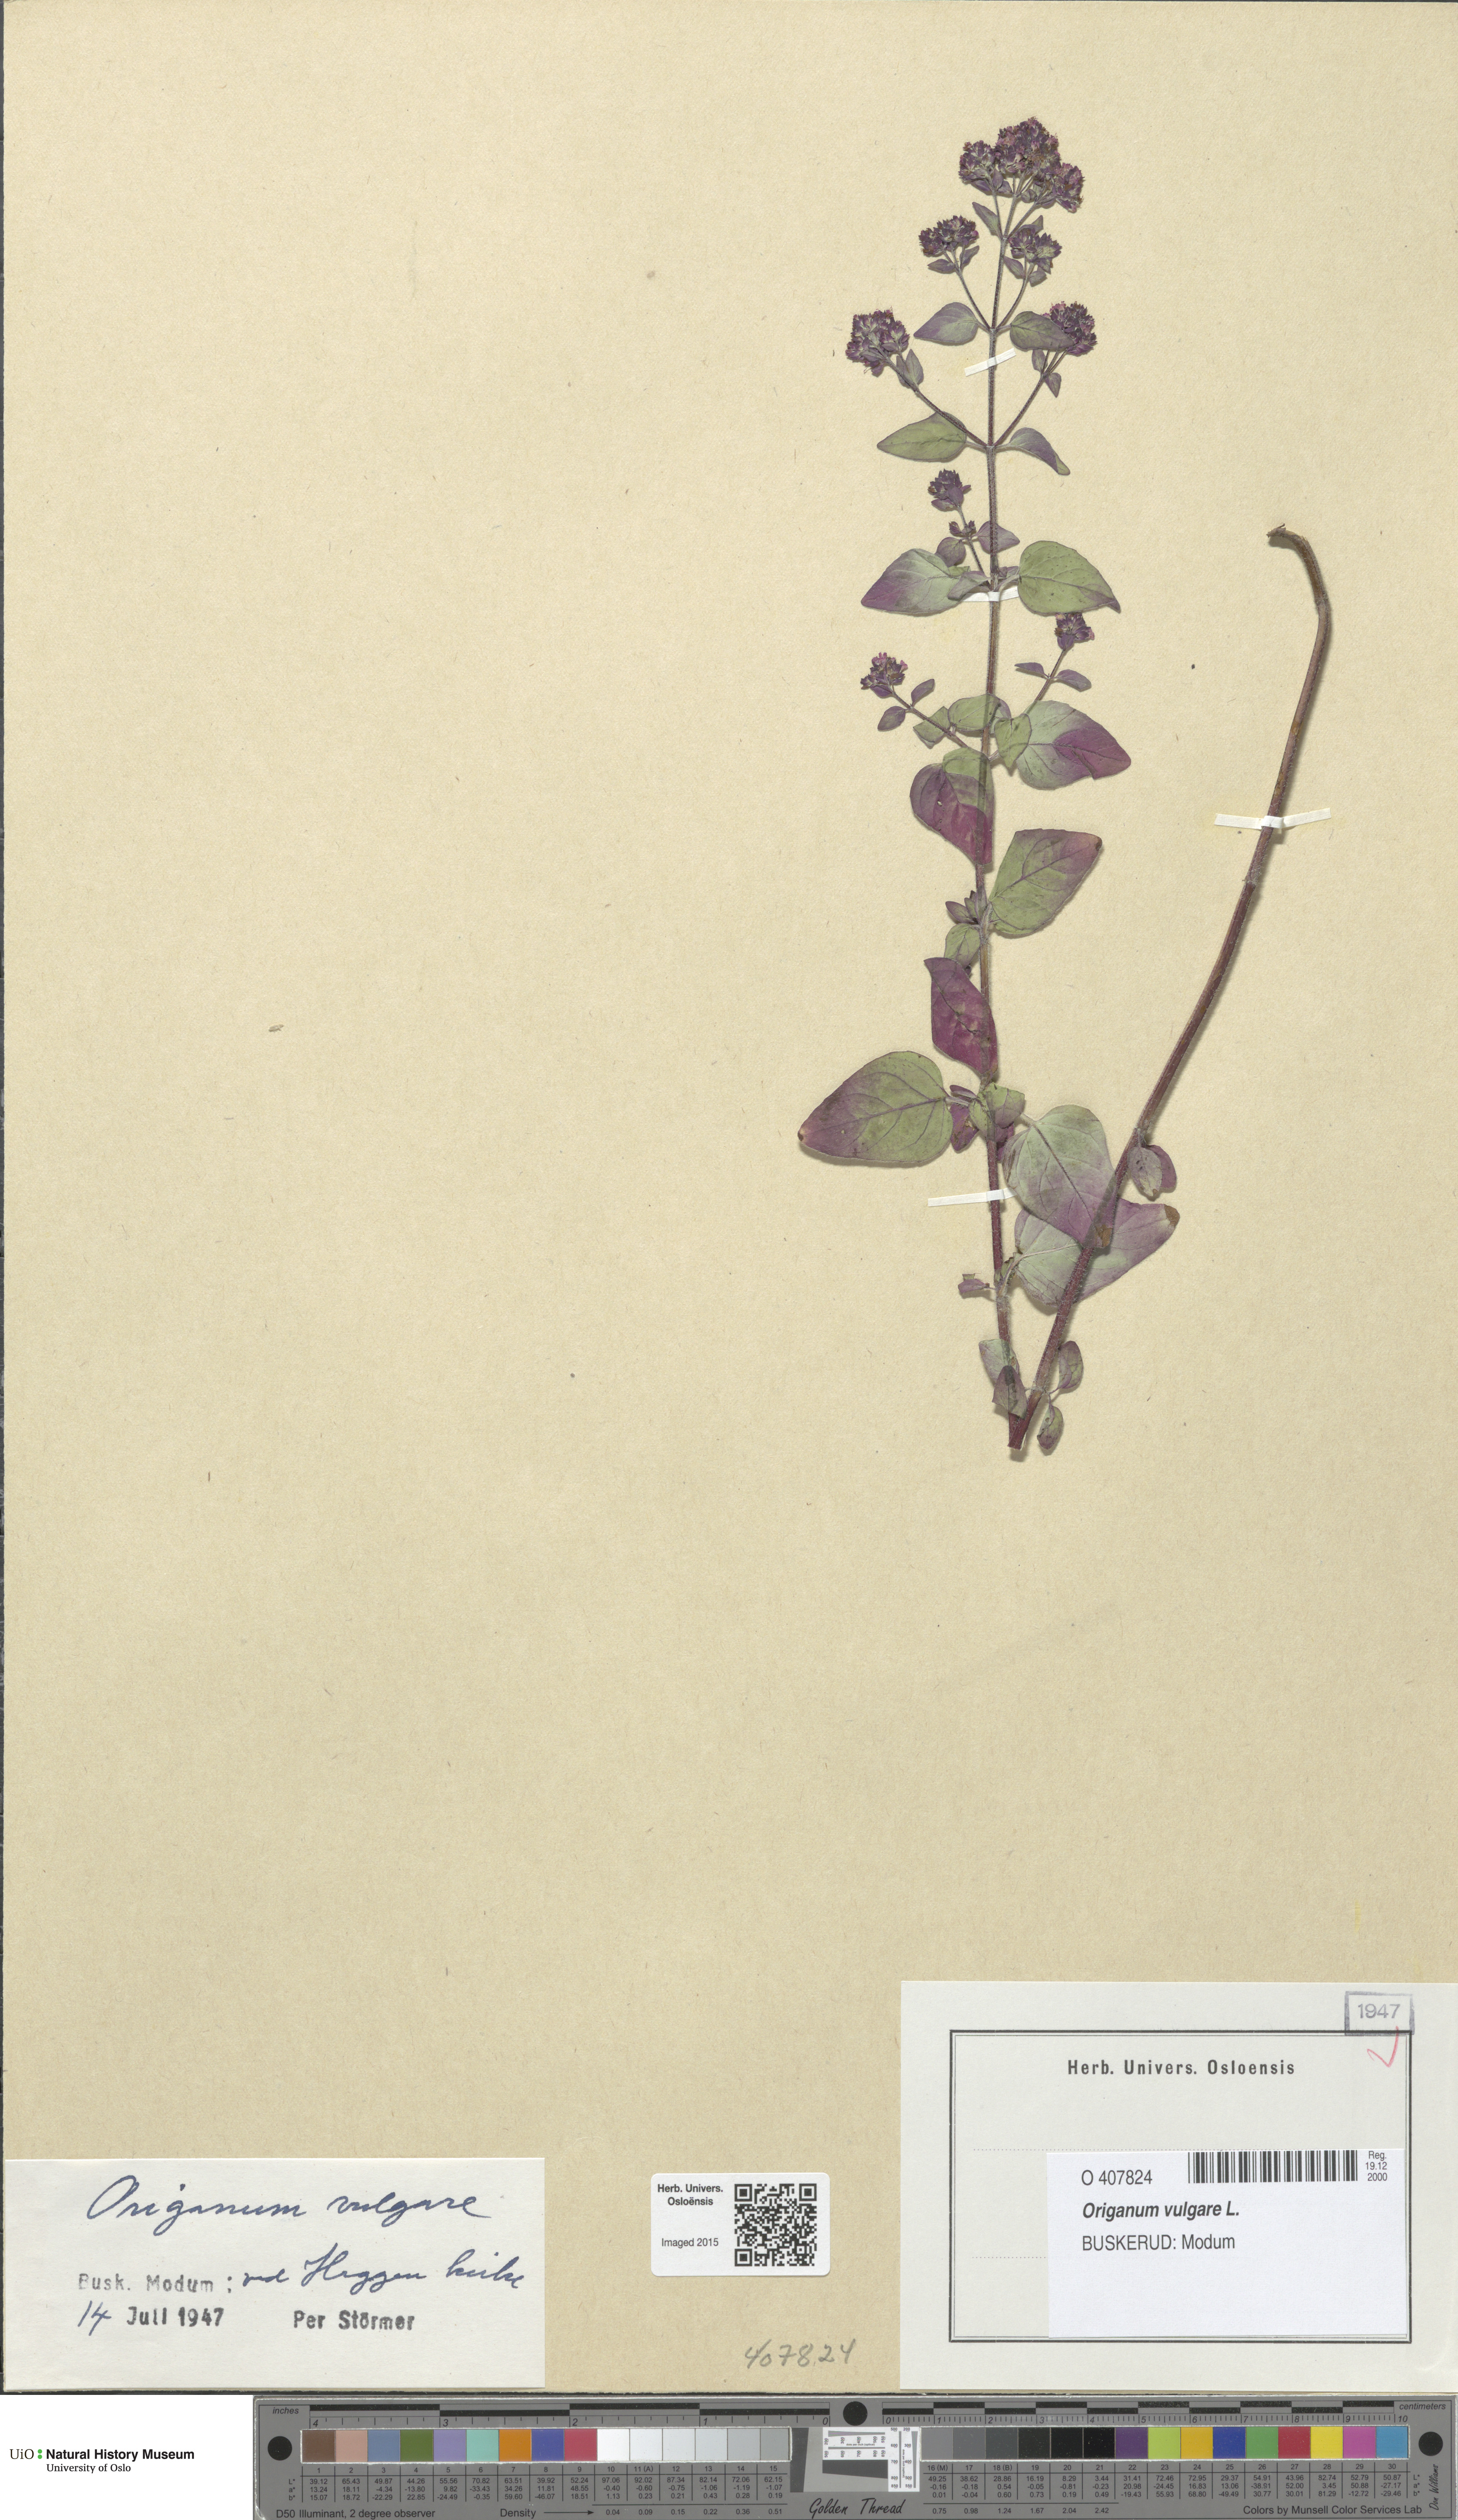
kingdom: Plantae
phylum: Tracheophyta
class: Magnoliopsida
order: Lamiales
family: Lamiaceae
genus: Origanum
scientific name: Origanum vulgare
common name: Wild marjoram
